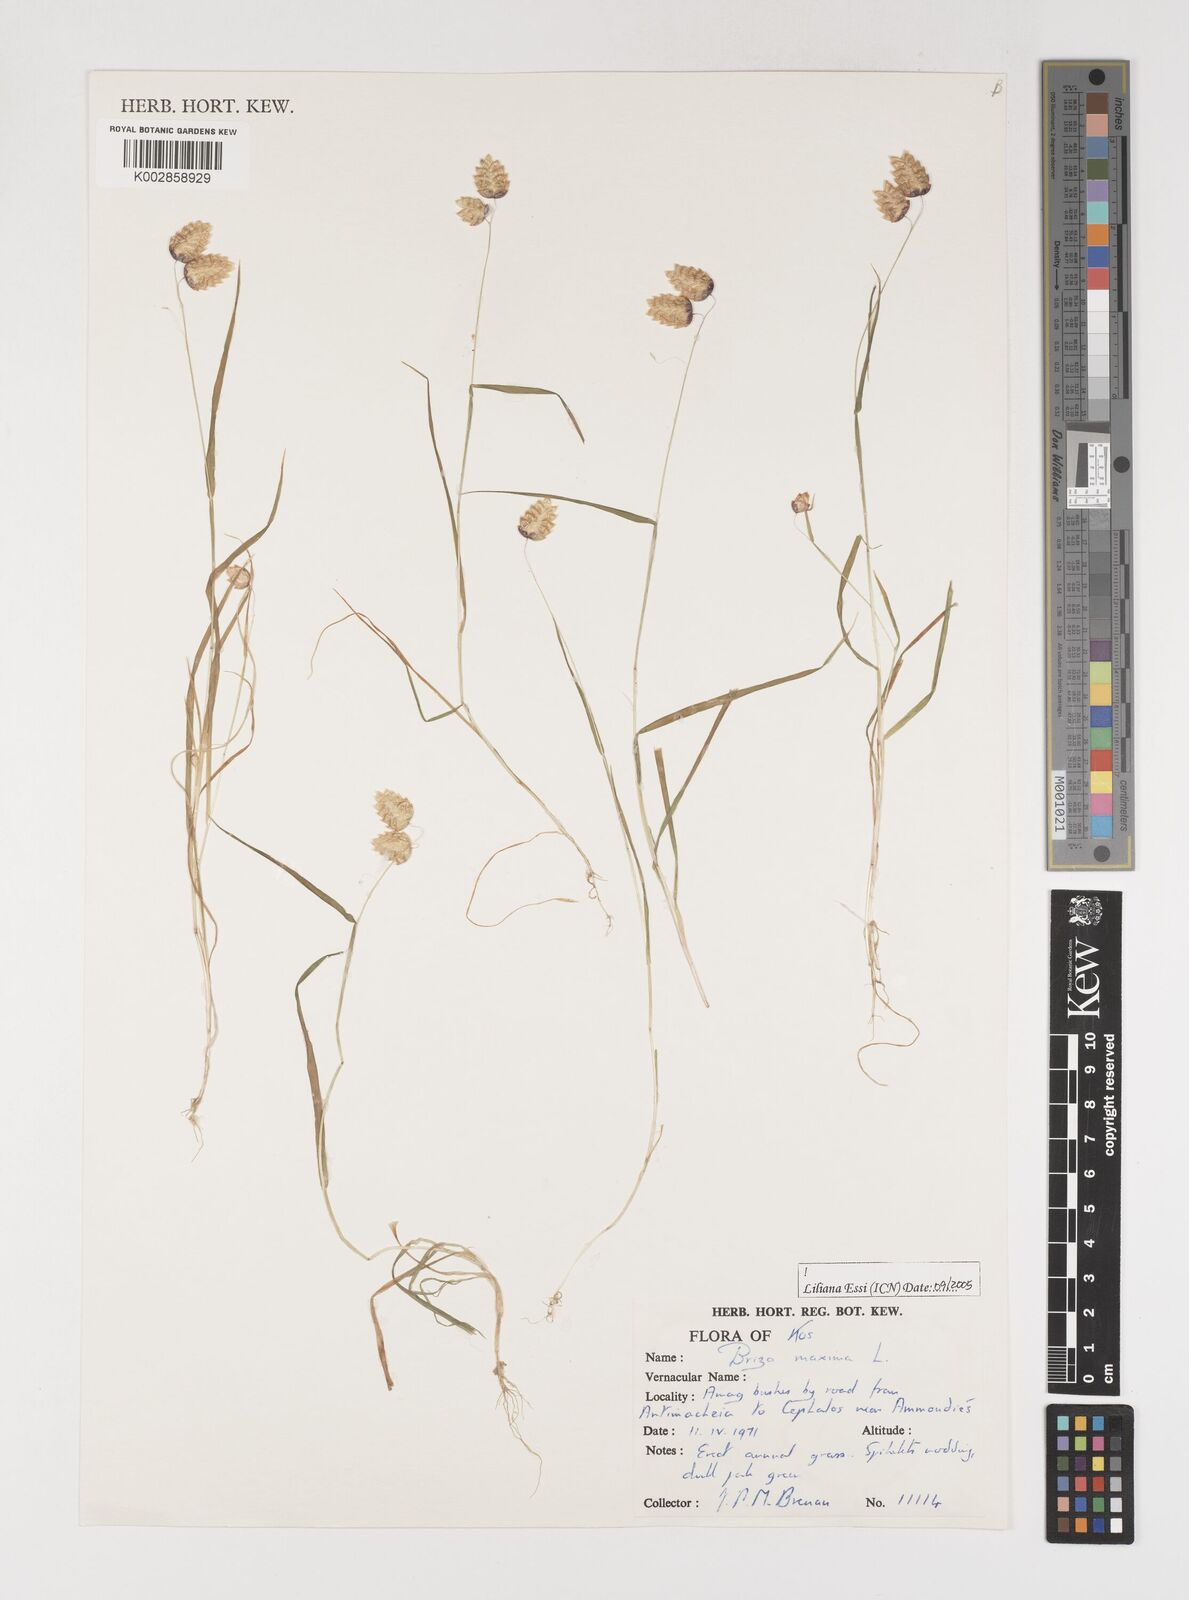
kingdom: Plantae
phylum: Tracheophyta
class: Liliopsida
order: Poales
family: Poaceae
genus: Briza
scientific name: Briza maxima
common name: Big quakinggrass
